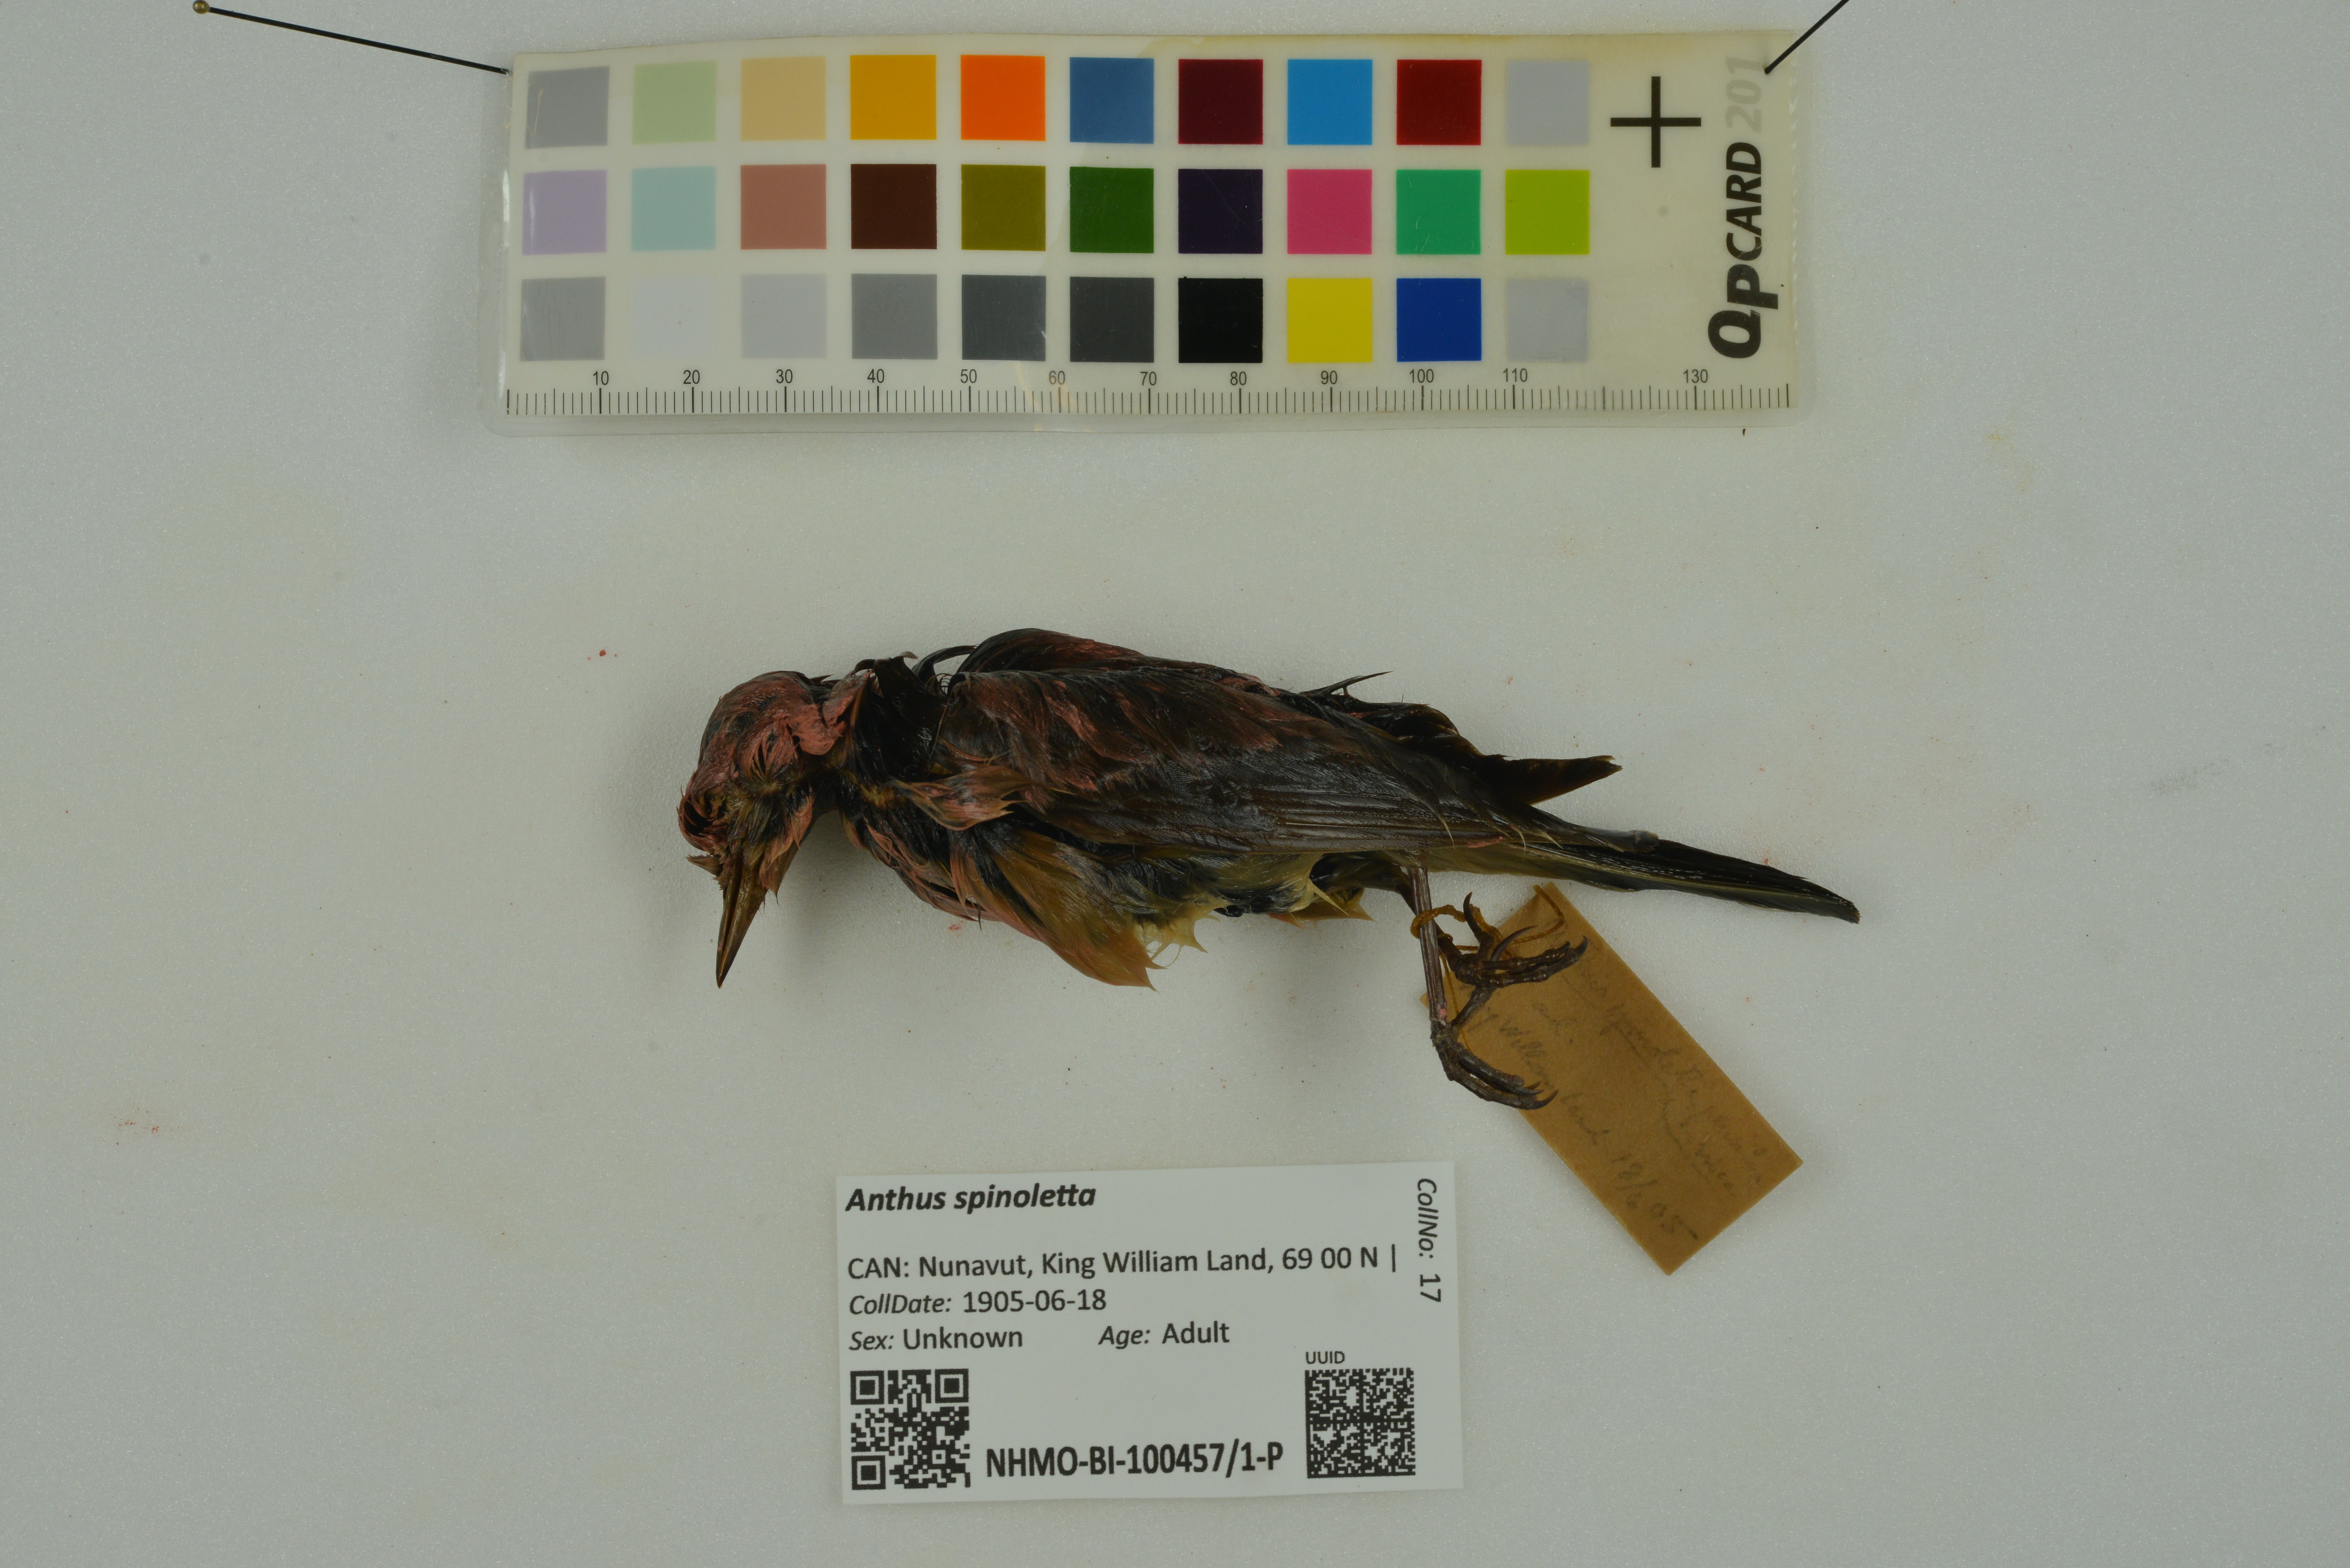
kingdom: Animalia
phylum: Chordata
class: Aves
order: Passeriformes
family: Motacillidae
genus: Anthus
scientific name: Anthus spinoletta
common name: Water pipit
